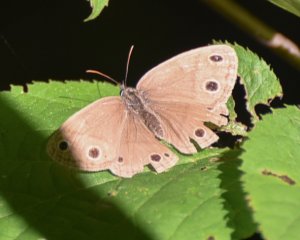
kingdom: Animalia
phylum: Arthropoda
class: Insecta
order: Lepidoptera
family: Nymphalidae
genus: Euptychia
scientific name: Euptychia cymela
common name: Little Wood Satyr
